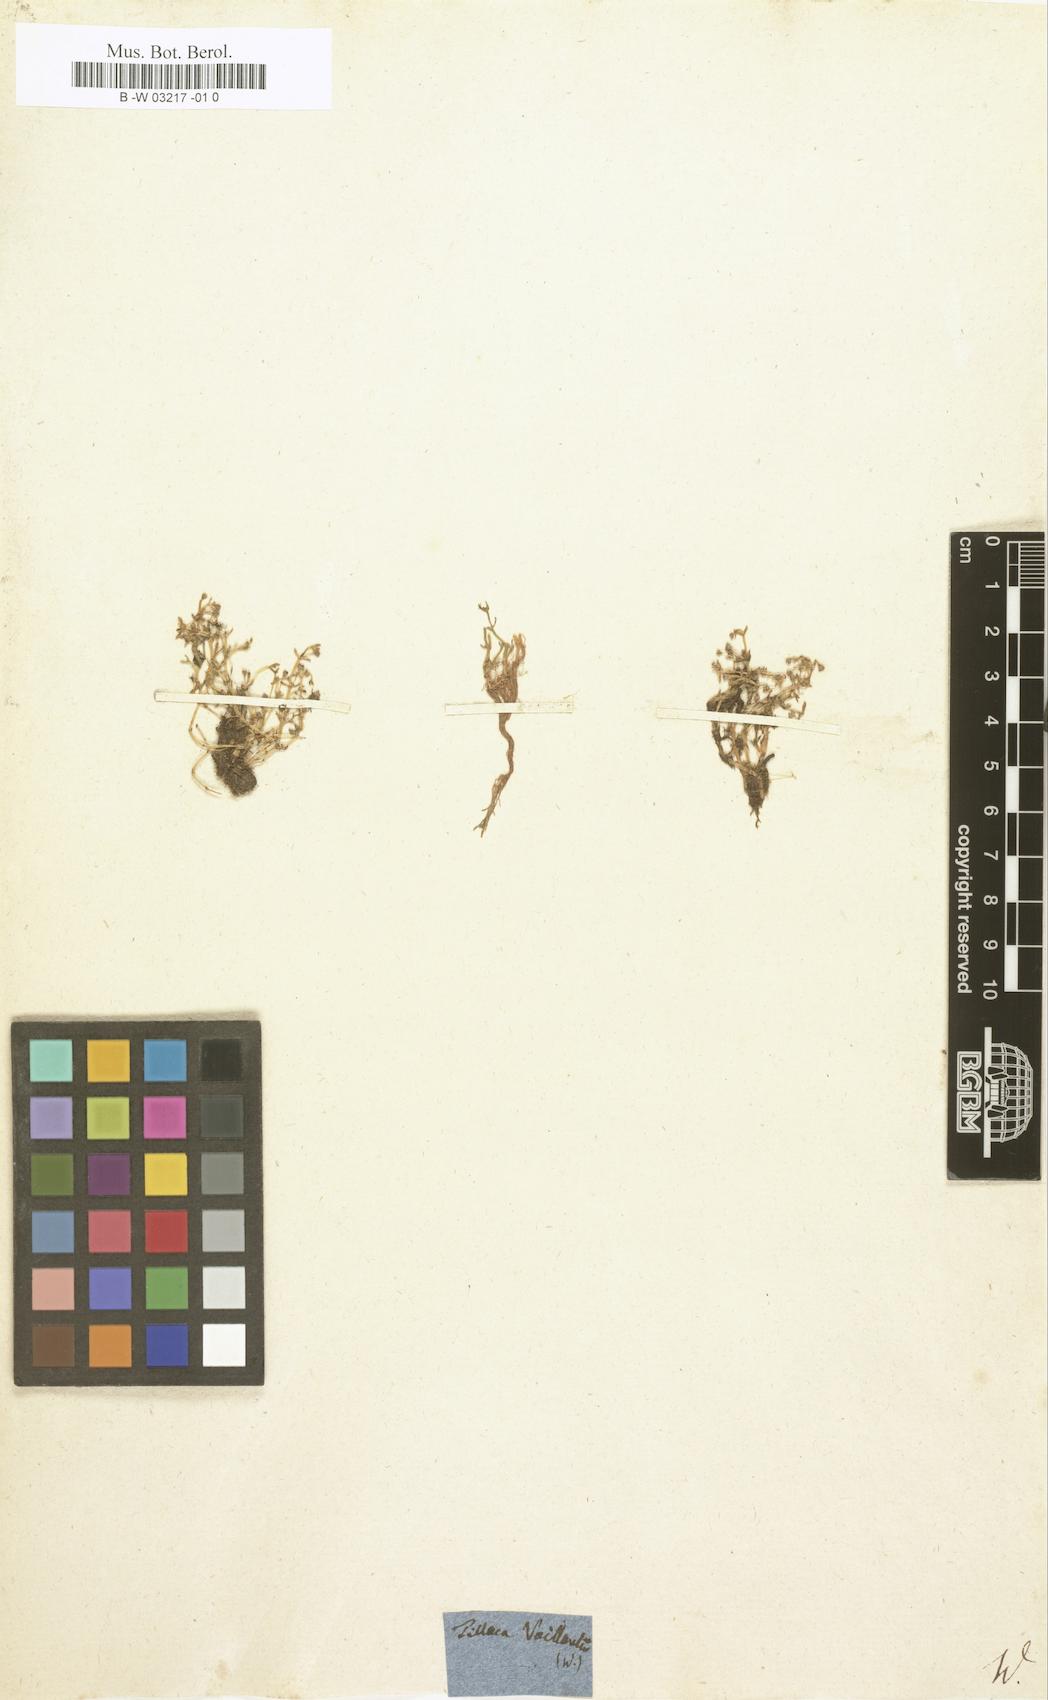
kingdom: Plantae
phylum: Tracheophyta
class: Magnoliopsida
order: Saxifragales
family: Crassulaceae
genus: Crassula
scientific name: Crassula vaillantii
